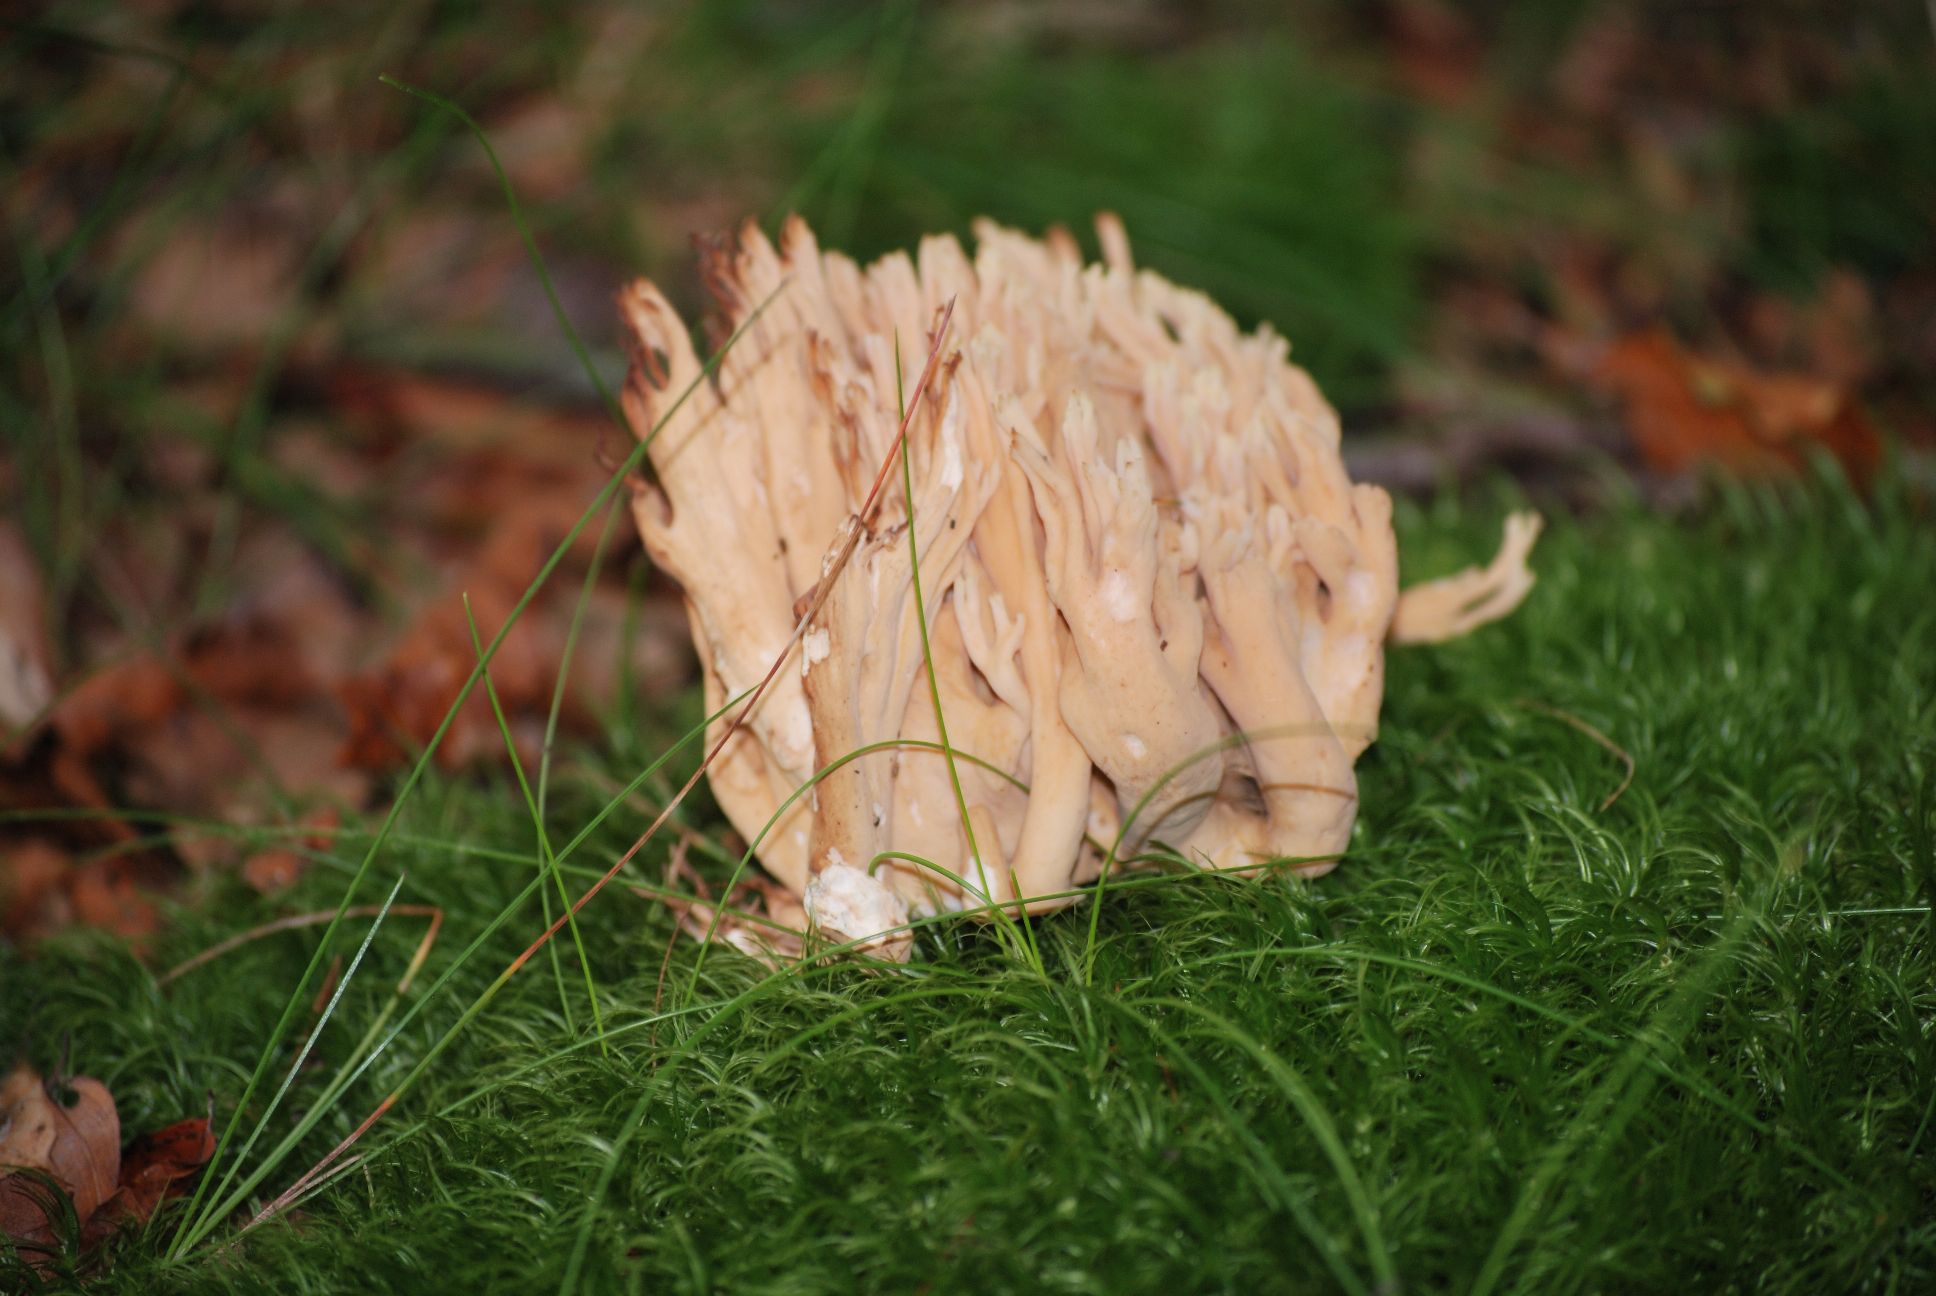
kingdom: Fungi
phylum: Basidiomycota
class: Agaricomycetes
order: Gomphales
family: Gomphaceae
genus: Ramaria
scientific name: Ramaria formosa
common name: smuk koralsvamp
